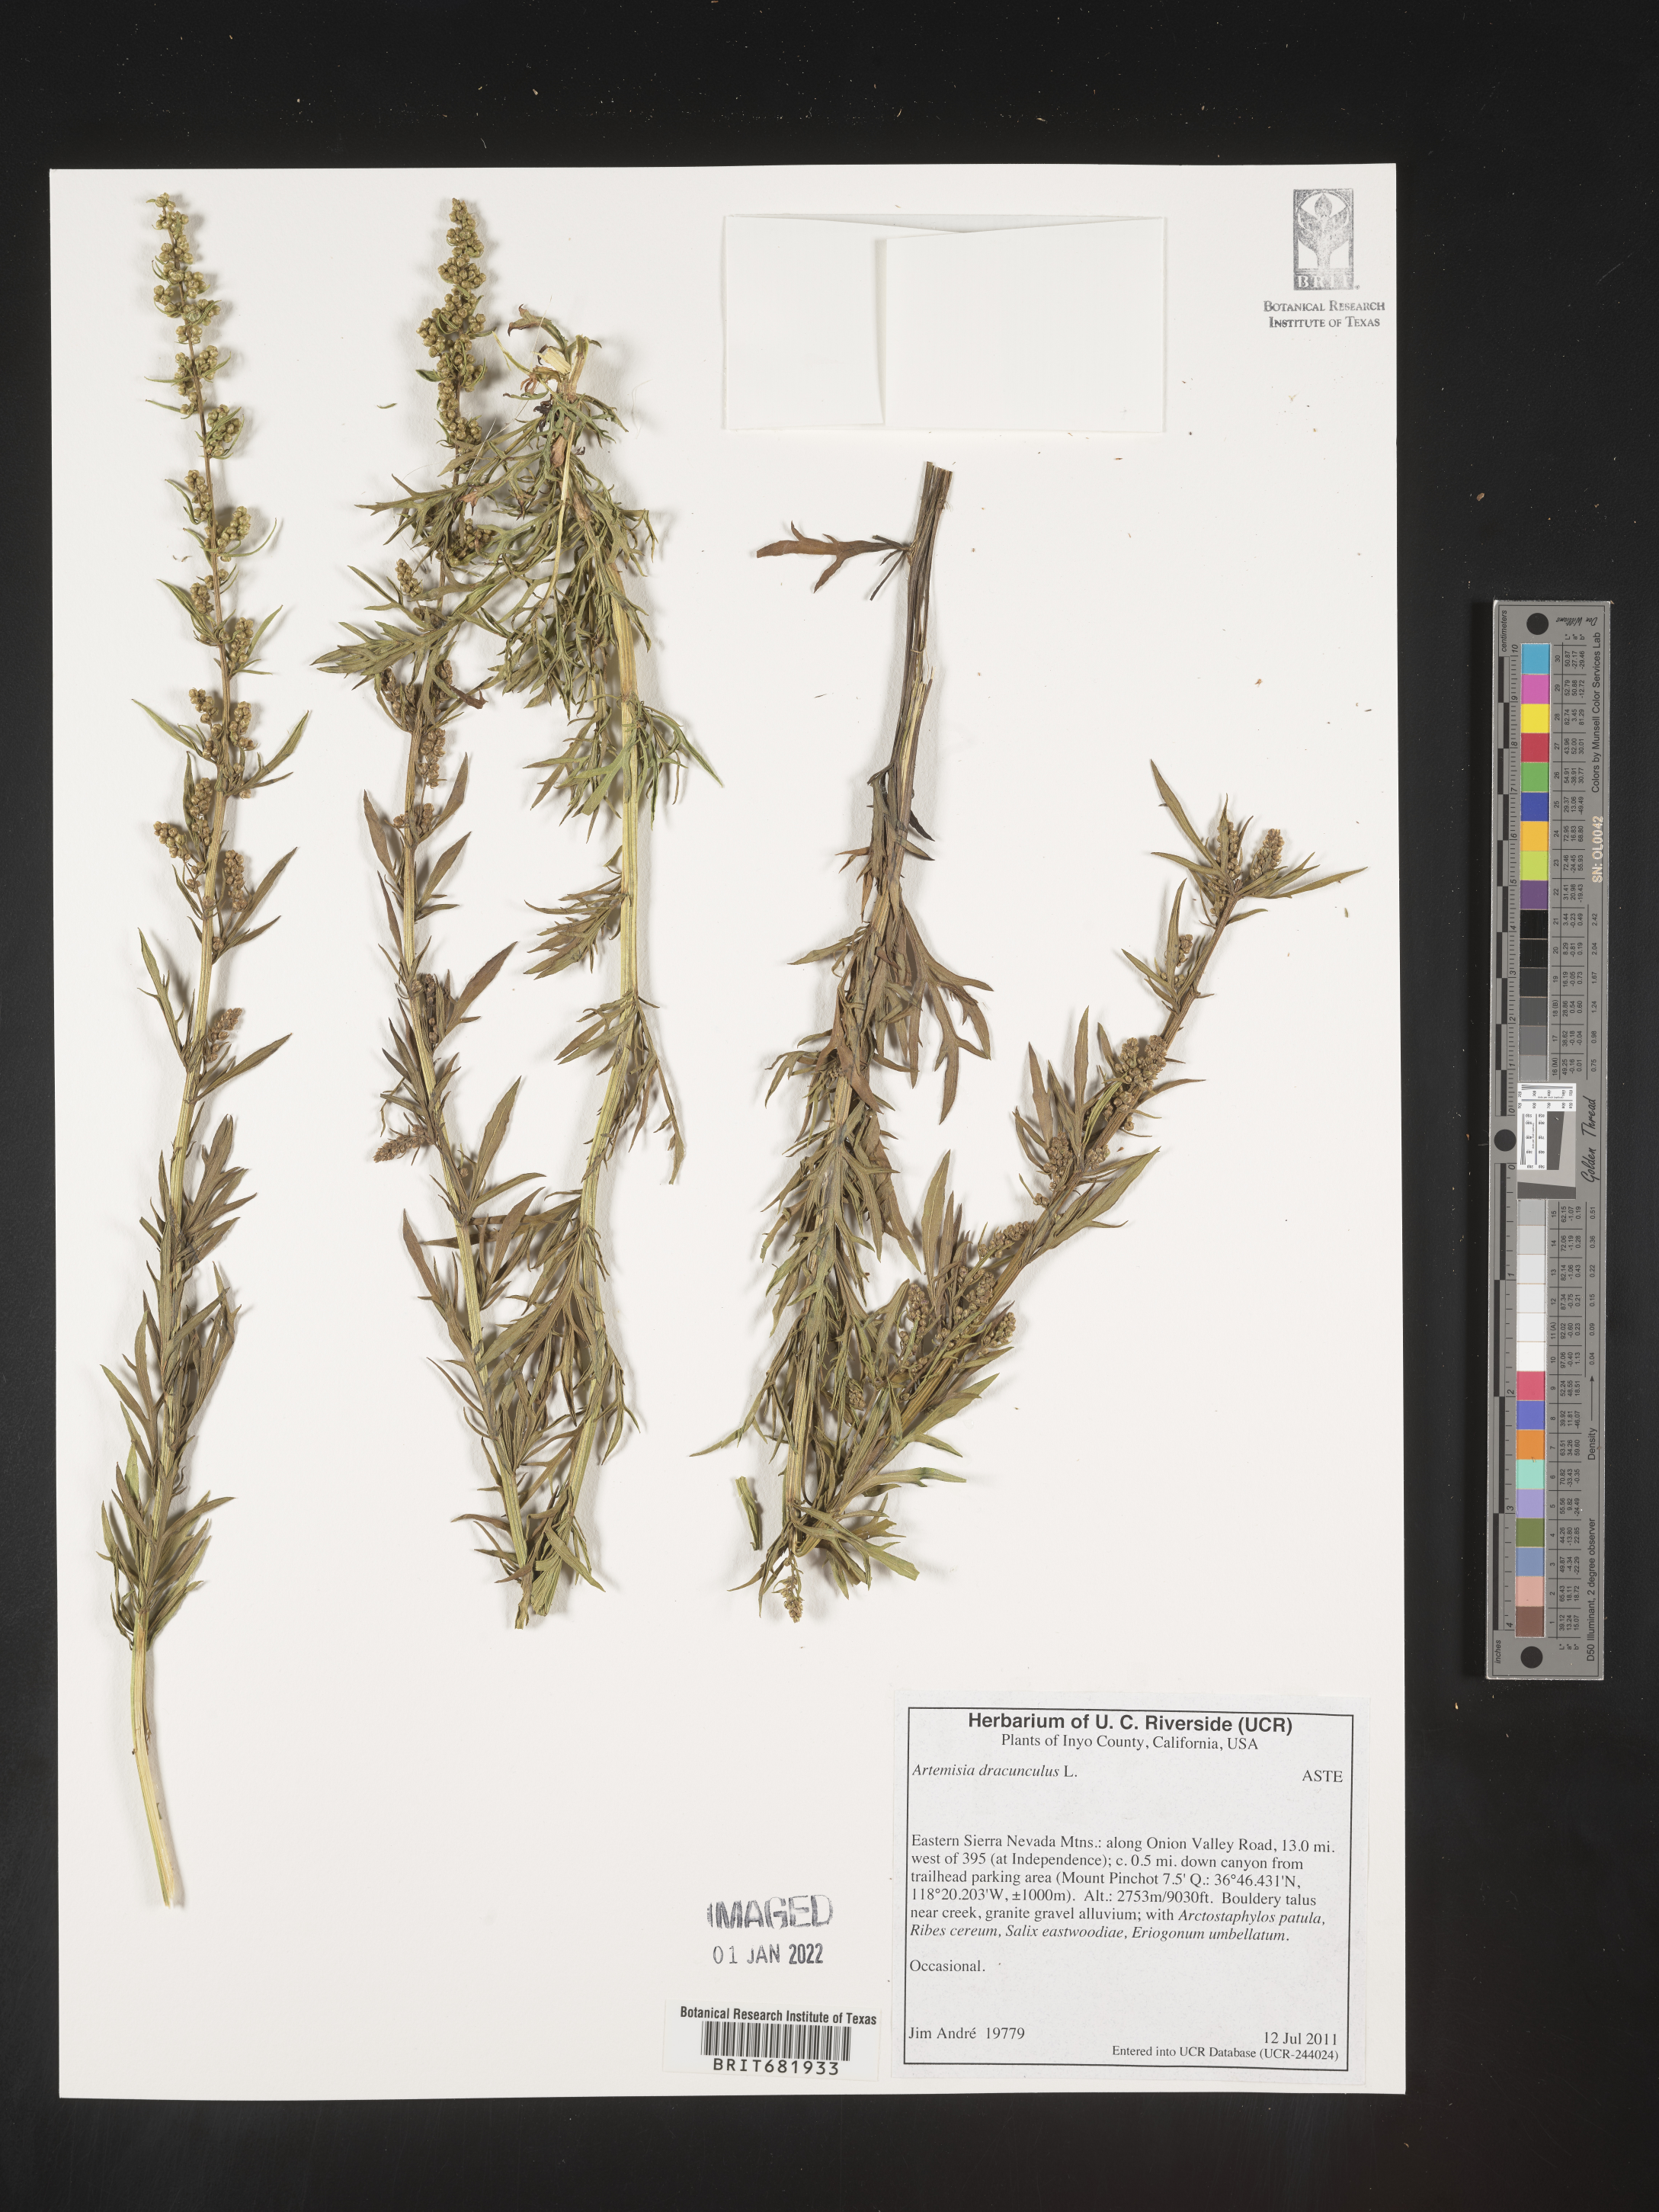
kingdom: Plantae
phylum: Tracheophyta
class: Magnoliopsida
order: Asterales
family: Asteraceae
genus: Artemisia
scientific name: Artemisia dracunculus
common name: Tarragon
